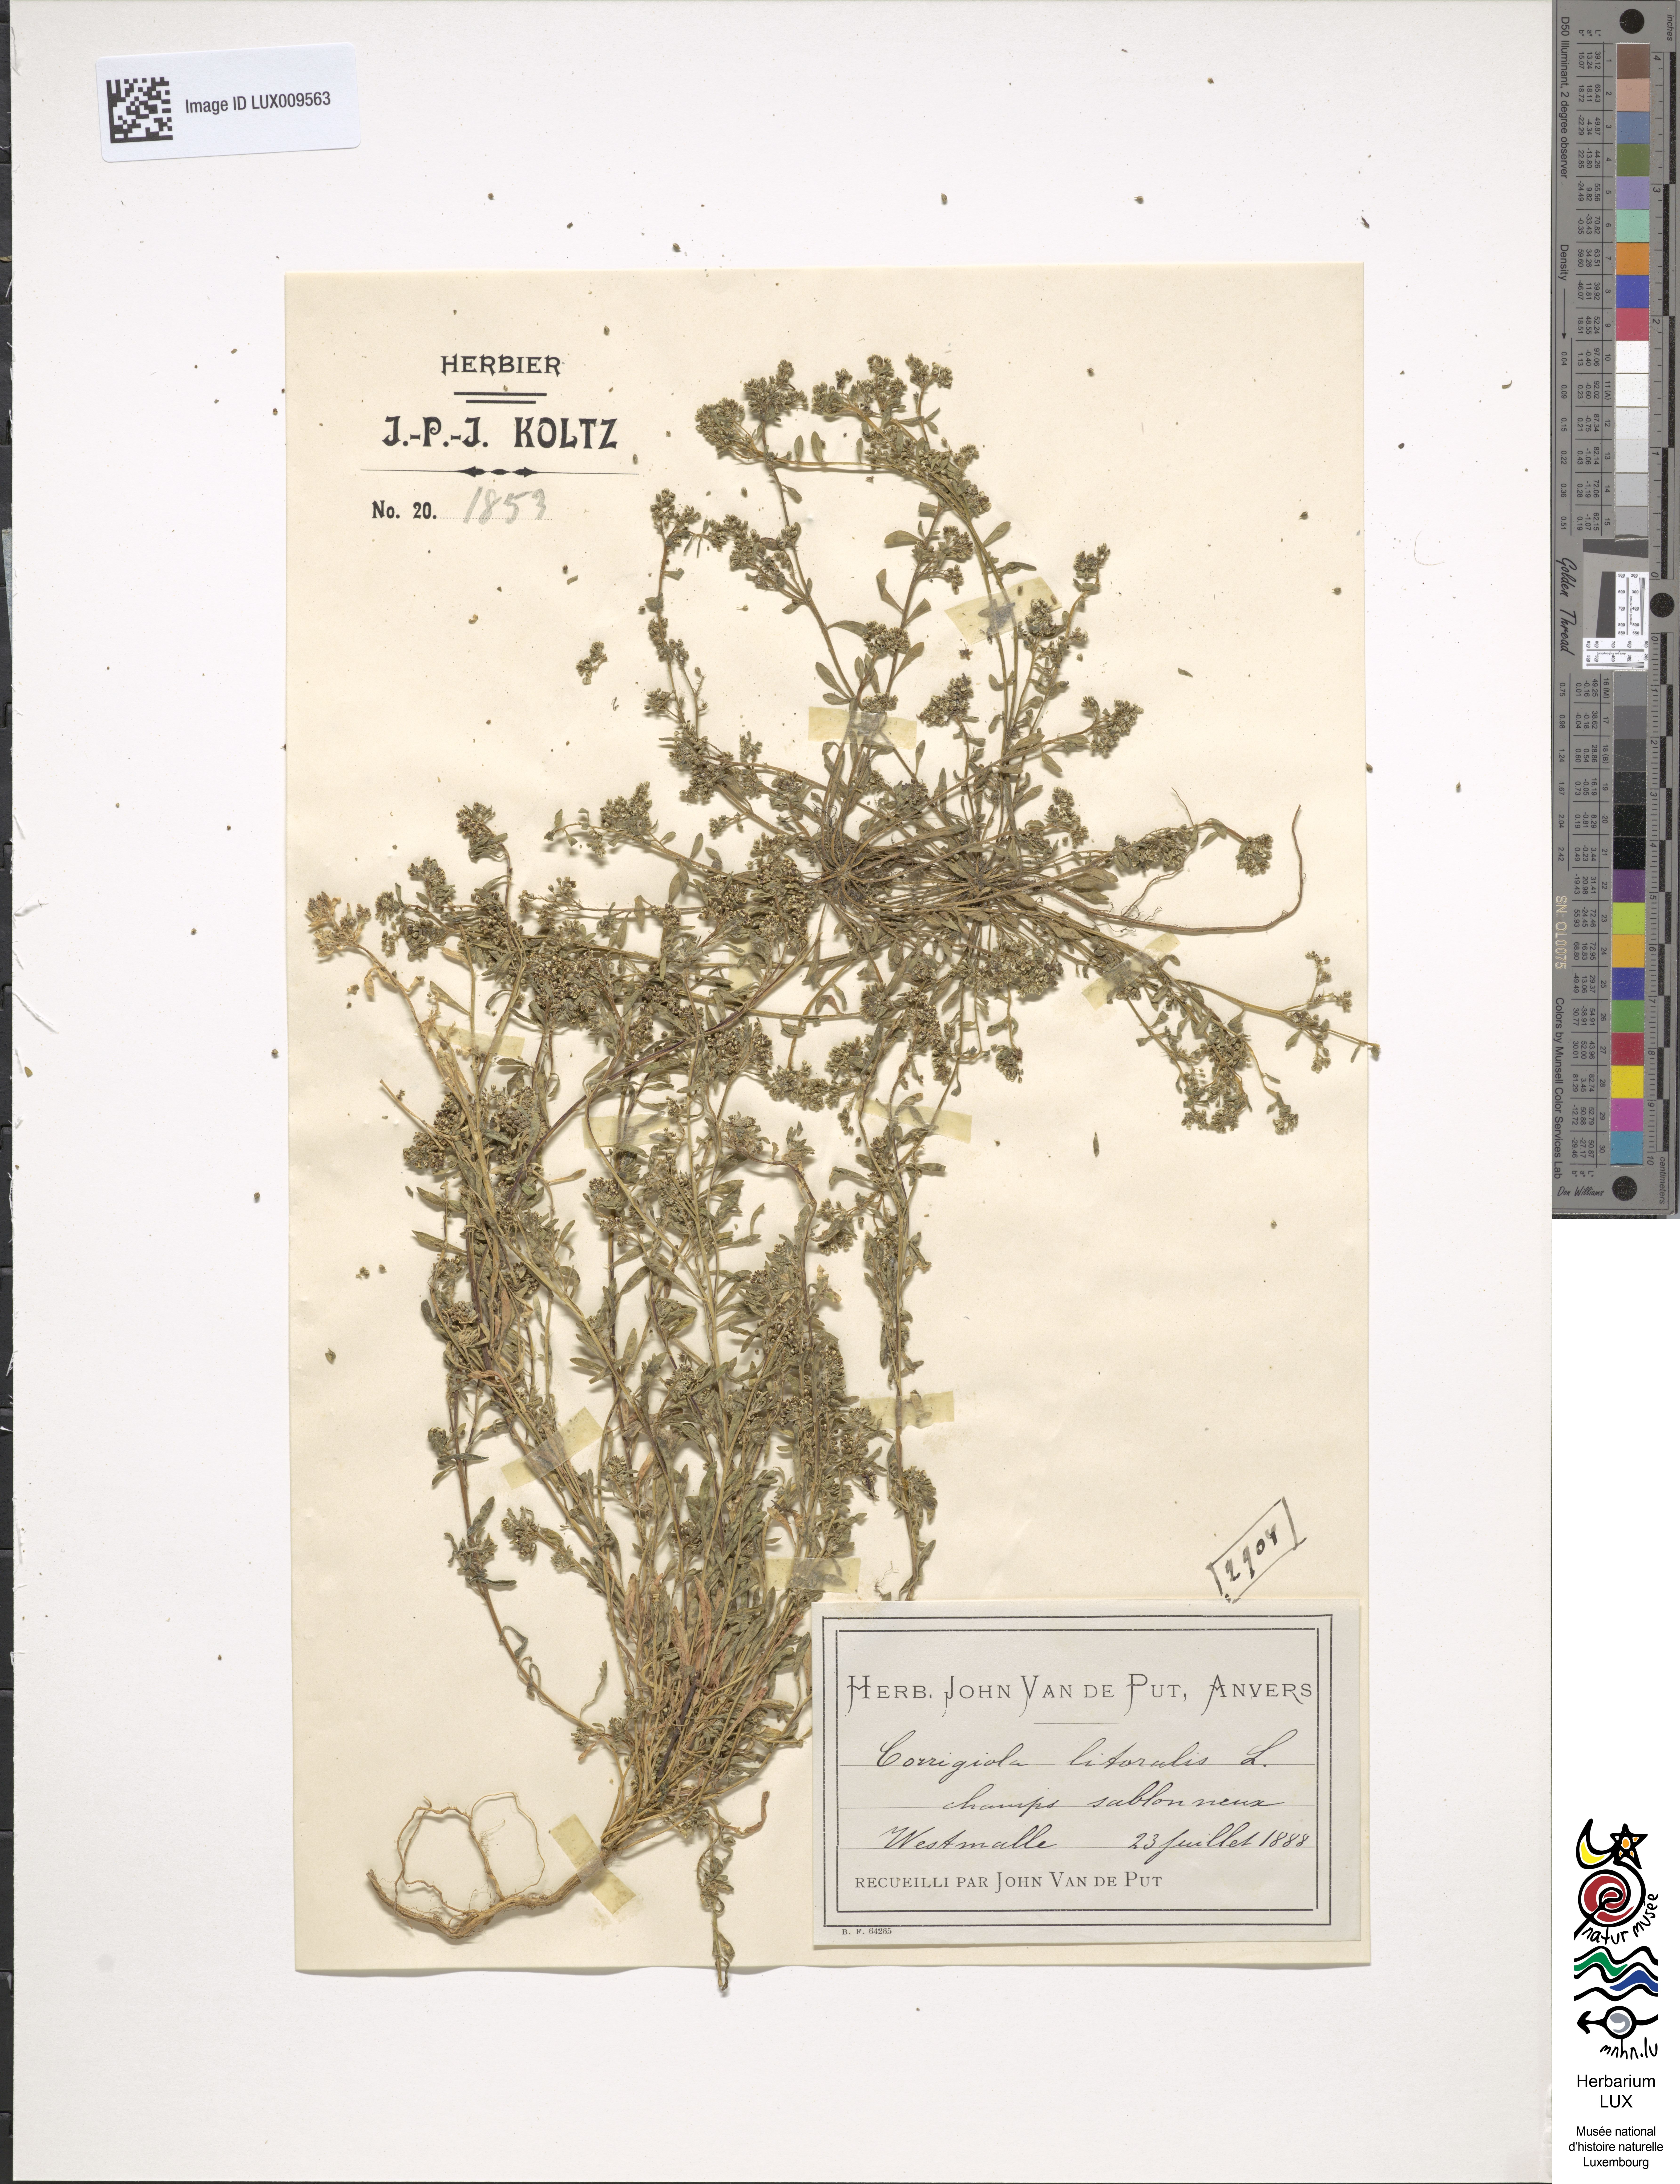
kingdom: Plantae
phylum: Tracheophyta
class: Magnoliopsida
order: Caryophyllales
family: Caryophyllaceae
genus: Corrigiola
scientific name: Corrigiola litoralis
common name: Strapwort
